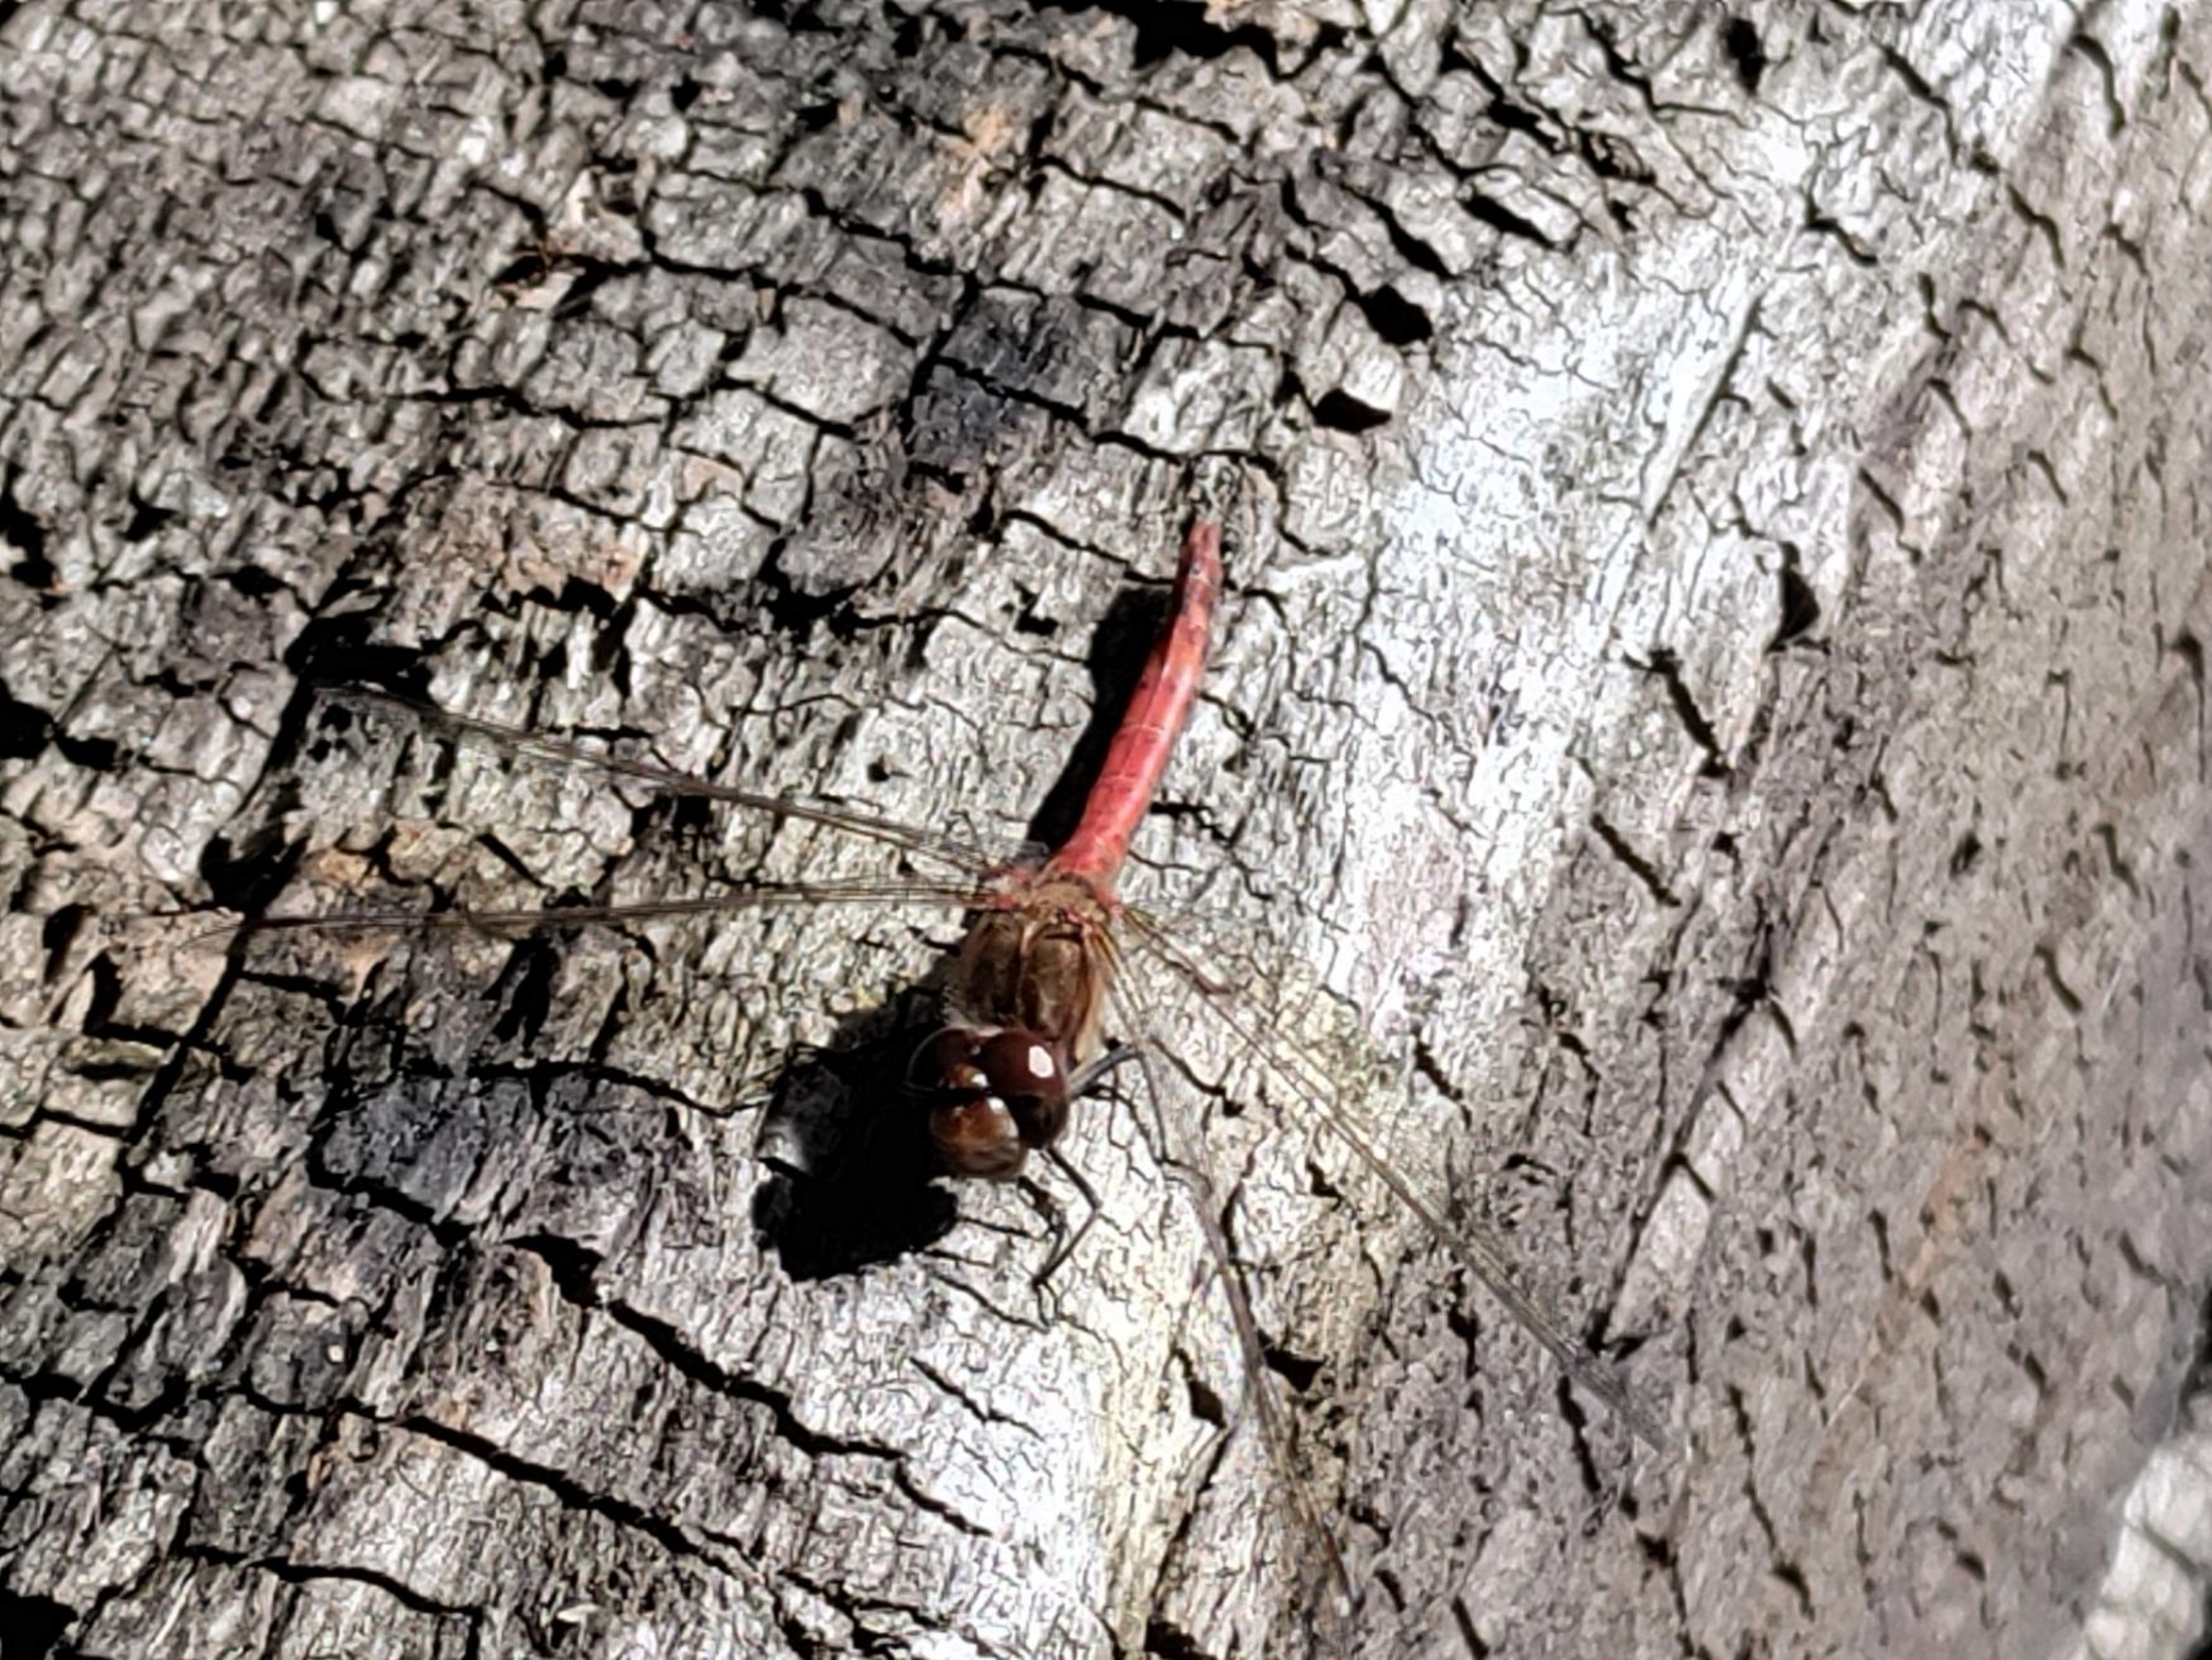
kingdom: Animalia
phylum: Arthropoda
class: Insecta
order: Odonata
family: Libellulidae
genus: Sympetrum
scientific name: Sympetrum
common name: Hedelibeller
